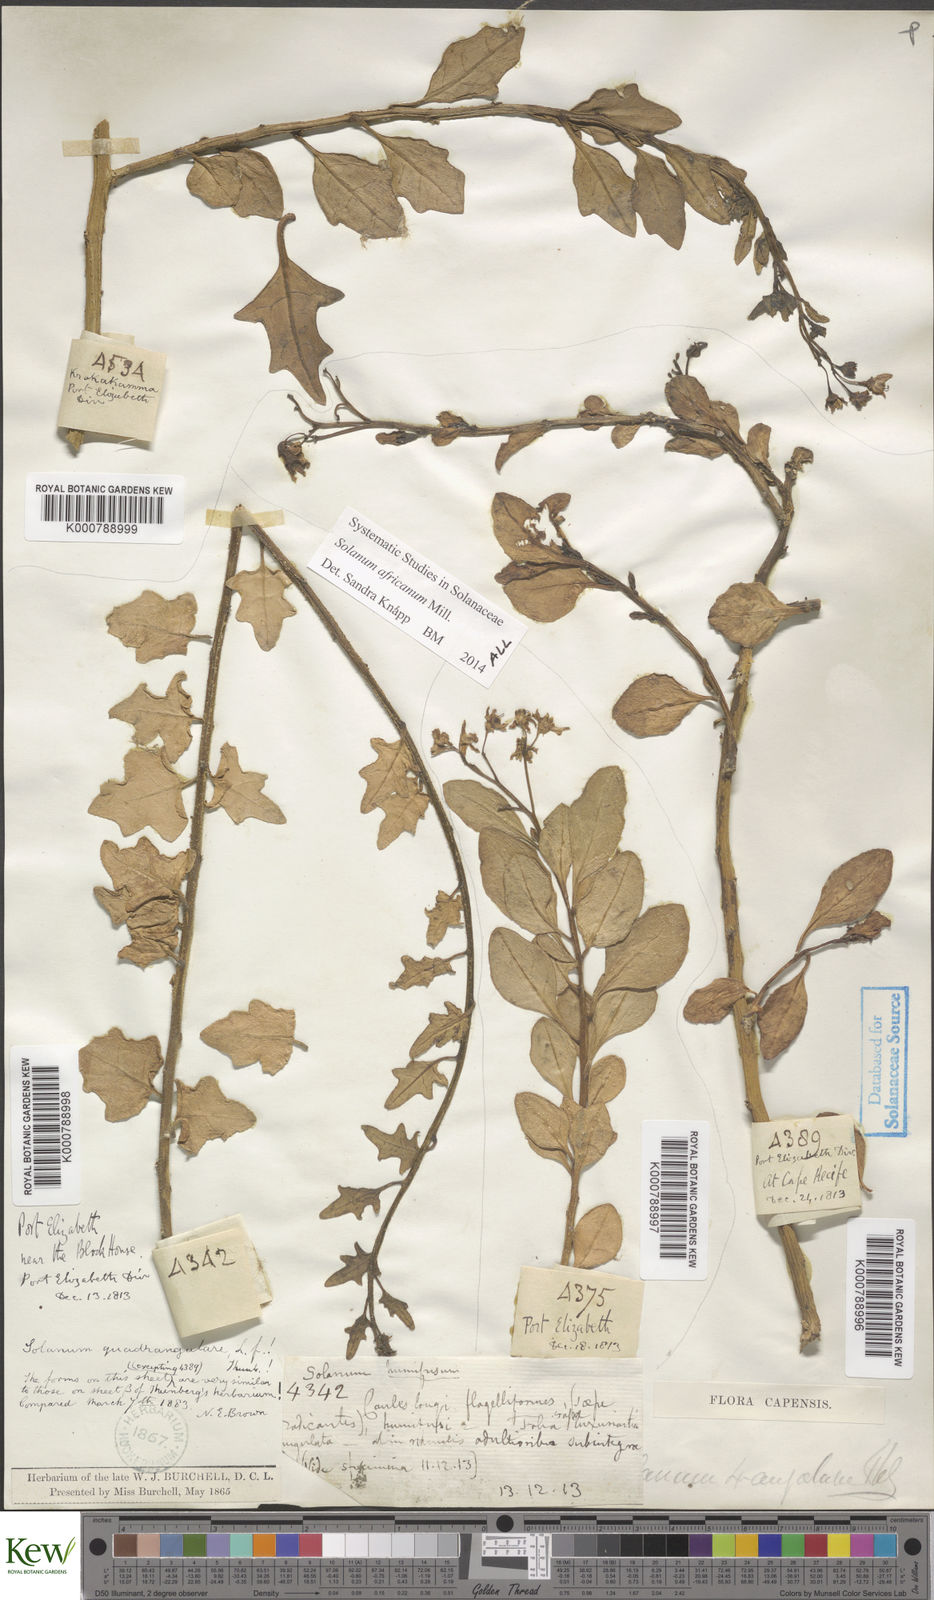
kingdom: Plantae
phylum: Tracheophyta
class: Magnoliopsida
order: Solanales
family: Solanaceae
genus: Solanum
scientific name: Solanum africanum
